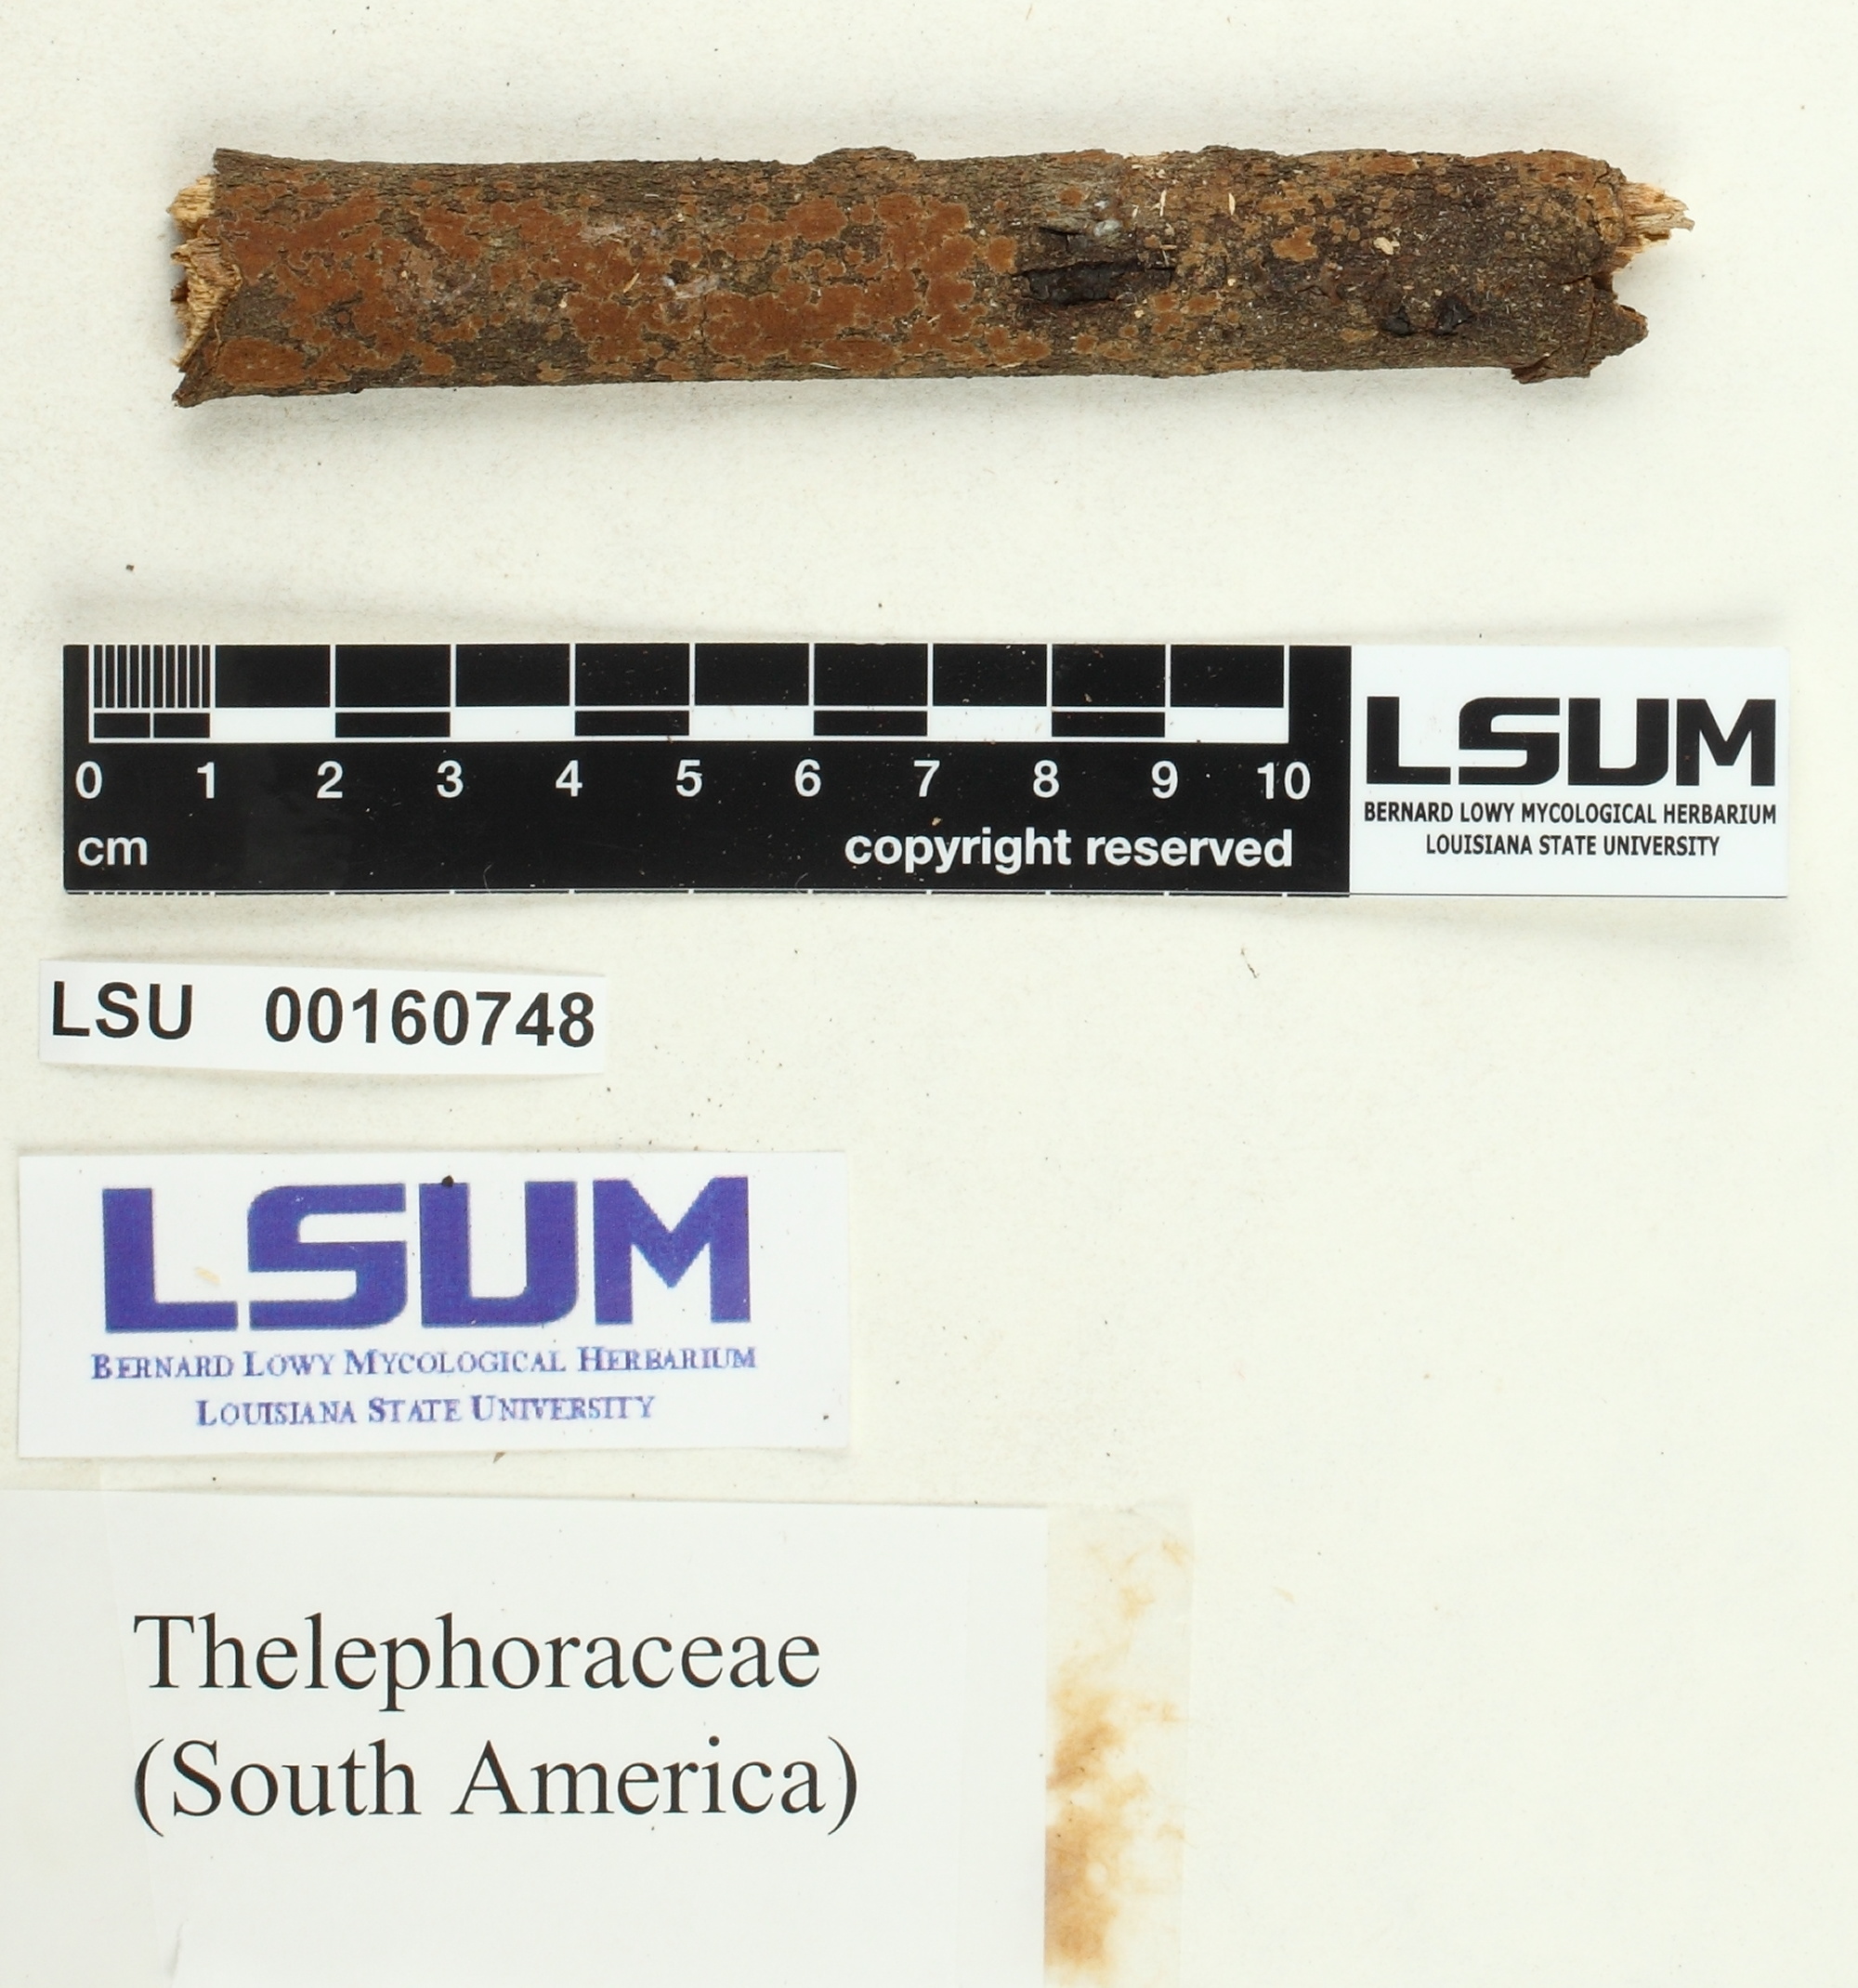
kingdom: Fungi
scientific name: Fungi
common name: Fungi
